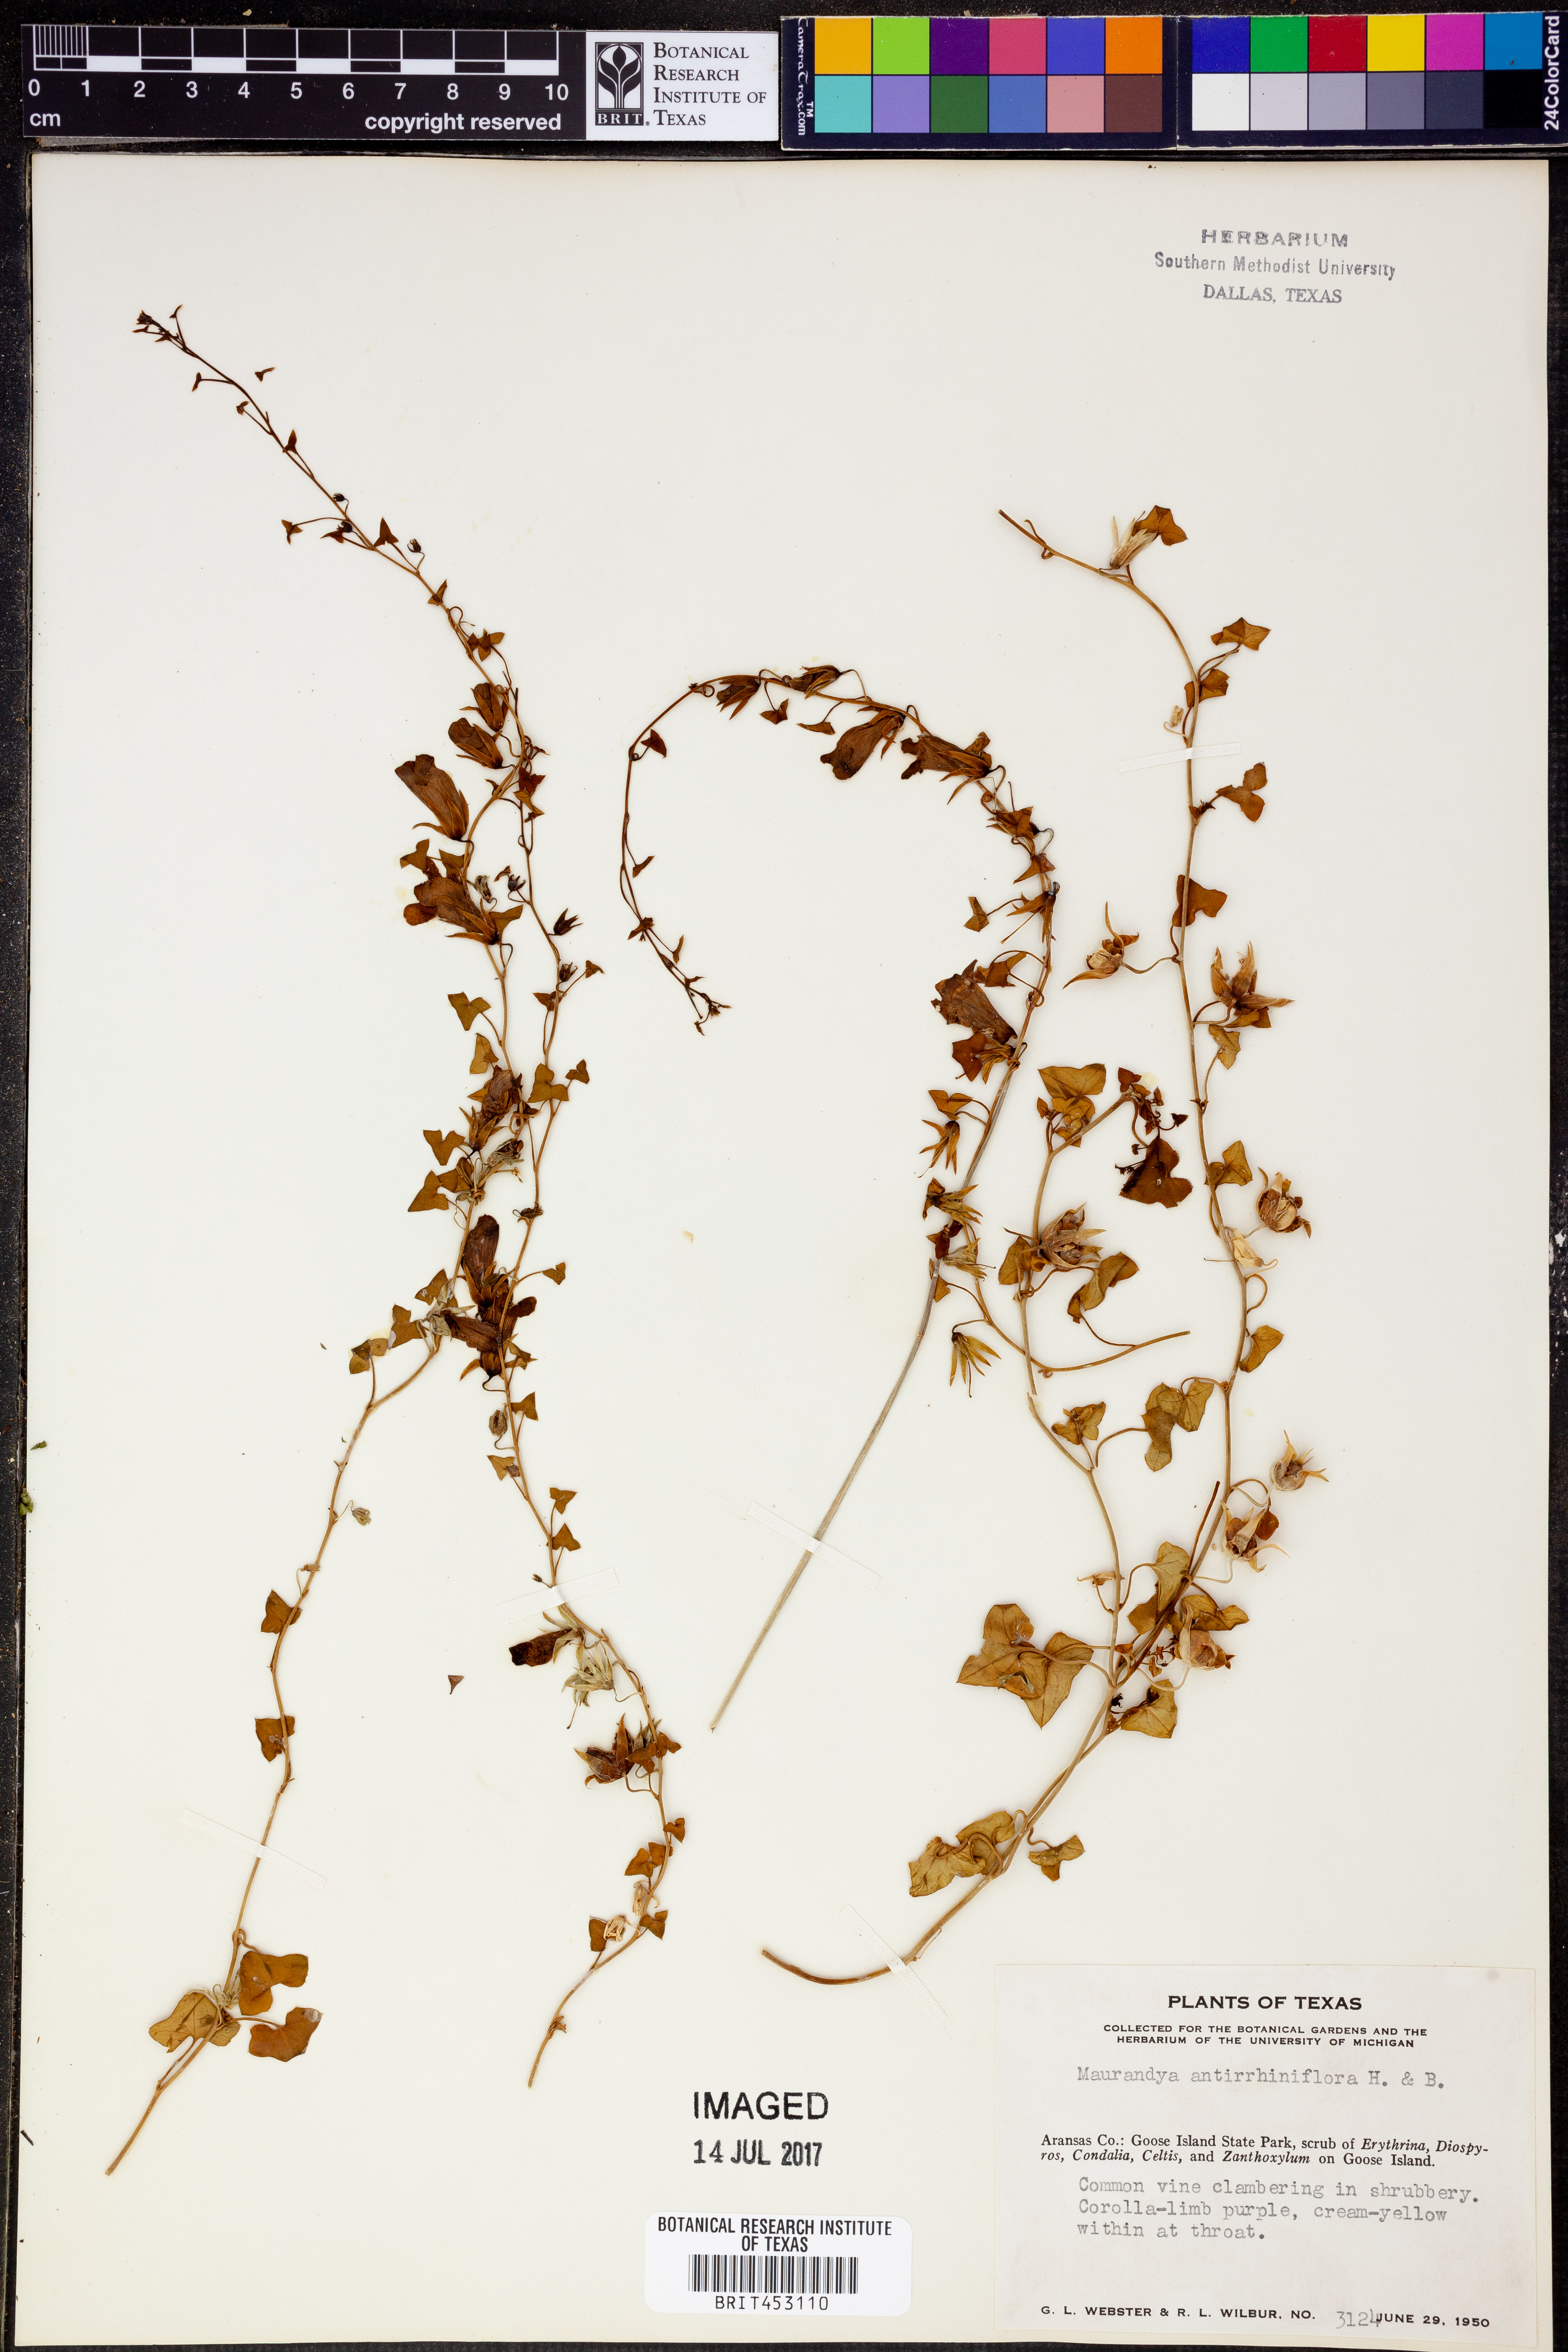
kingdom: Plantae
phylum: Tracheophyta
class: Magnoliopsida
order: Lamiales
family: Plantaginaceae
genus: Maurandella
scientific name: Maurandella antirrhiniflora
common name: Violet twining-snapdragon
